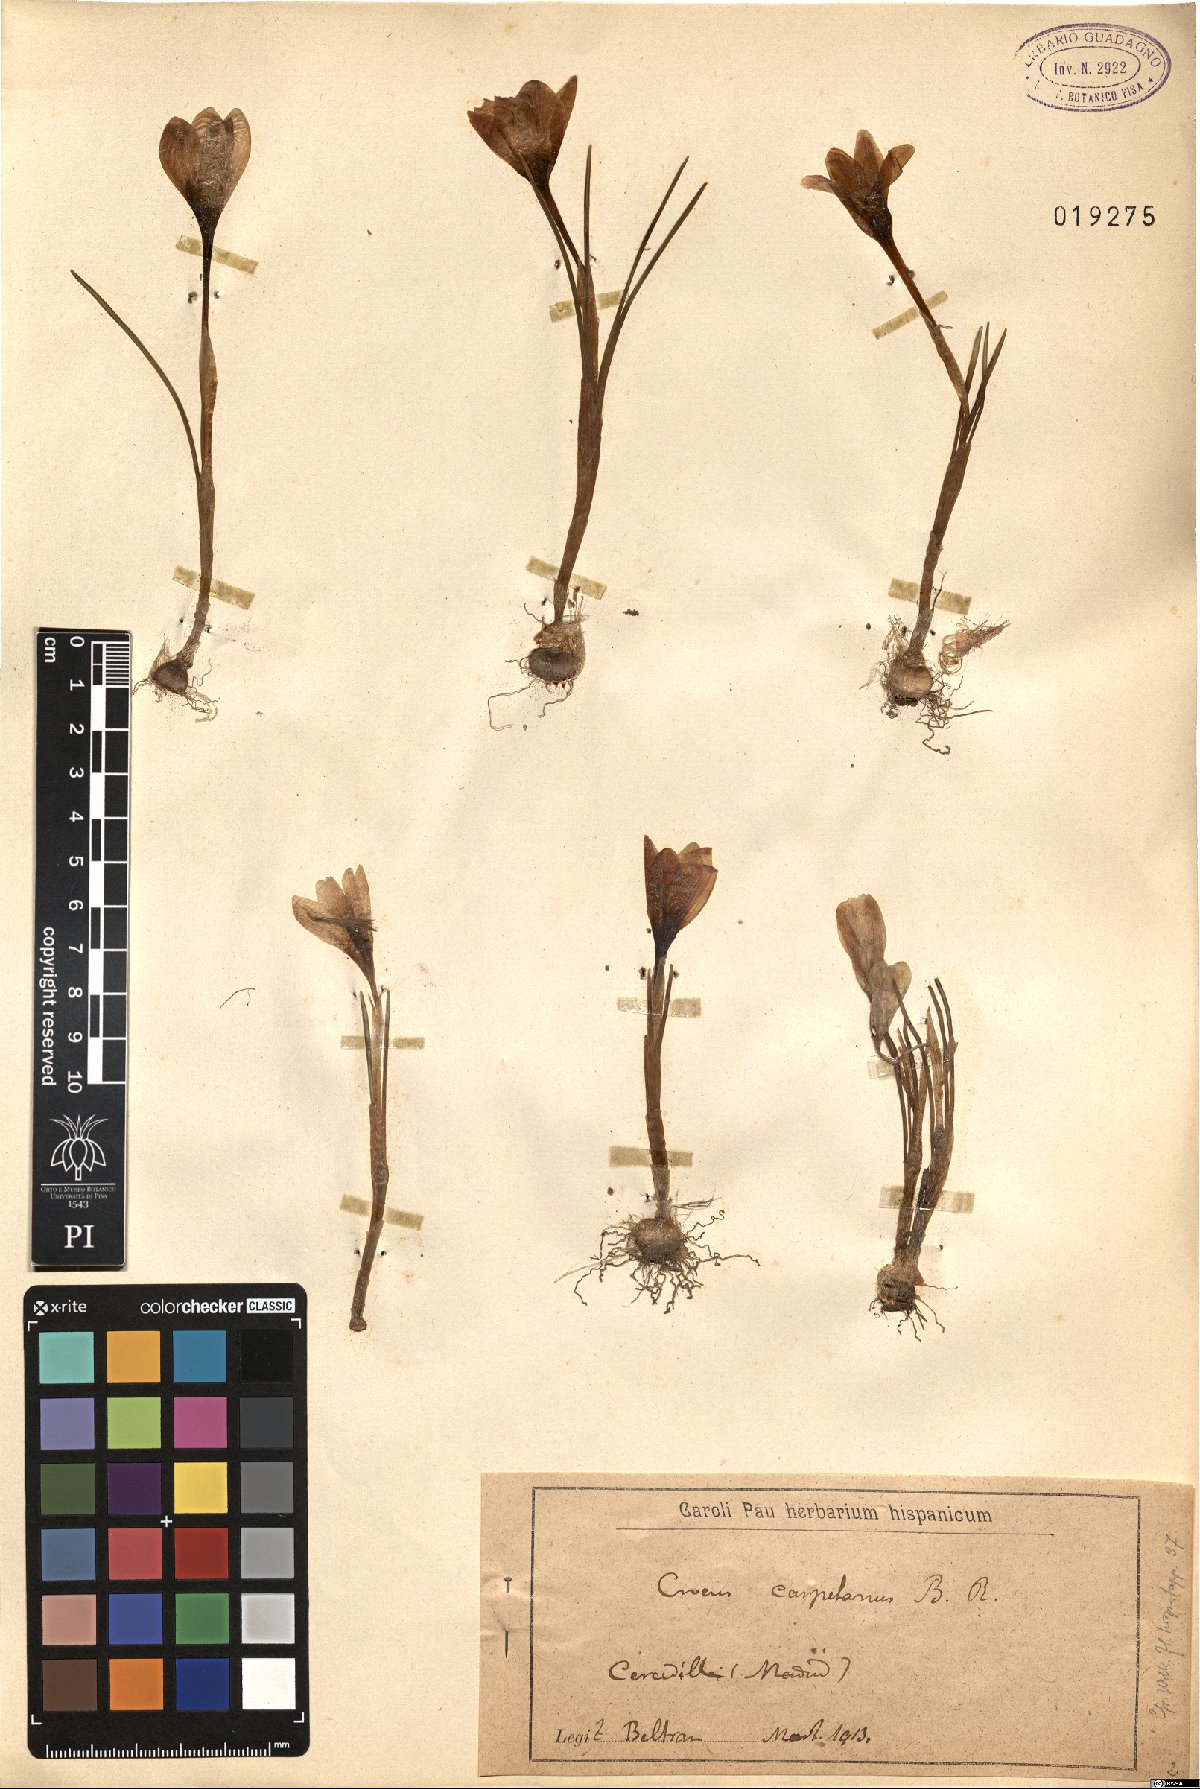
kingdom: Plantae
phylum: Tracheophyta
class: Liliopsida
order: Asparagales
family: Iridaceae
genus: Crocus
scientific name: Crocus carpetanus
